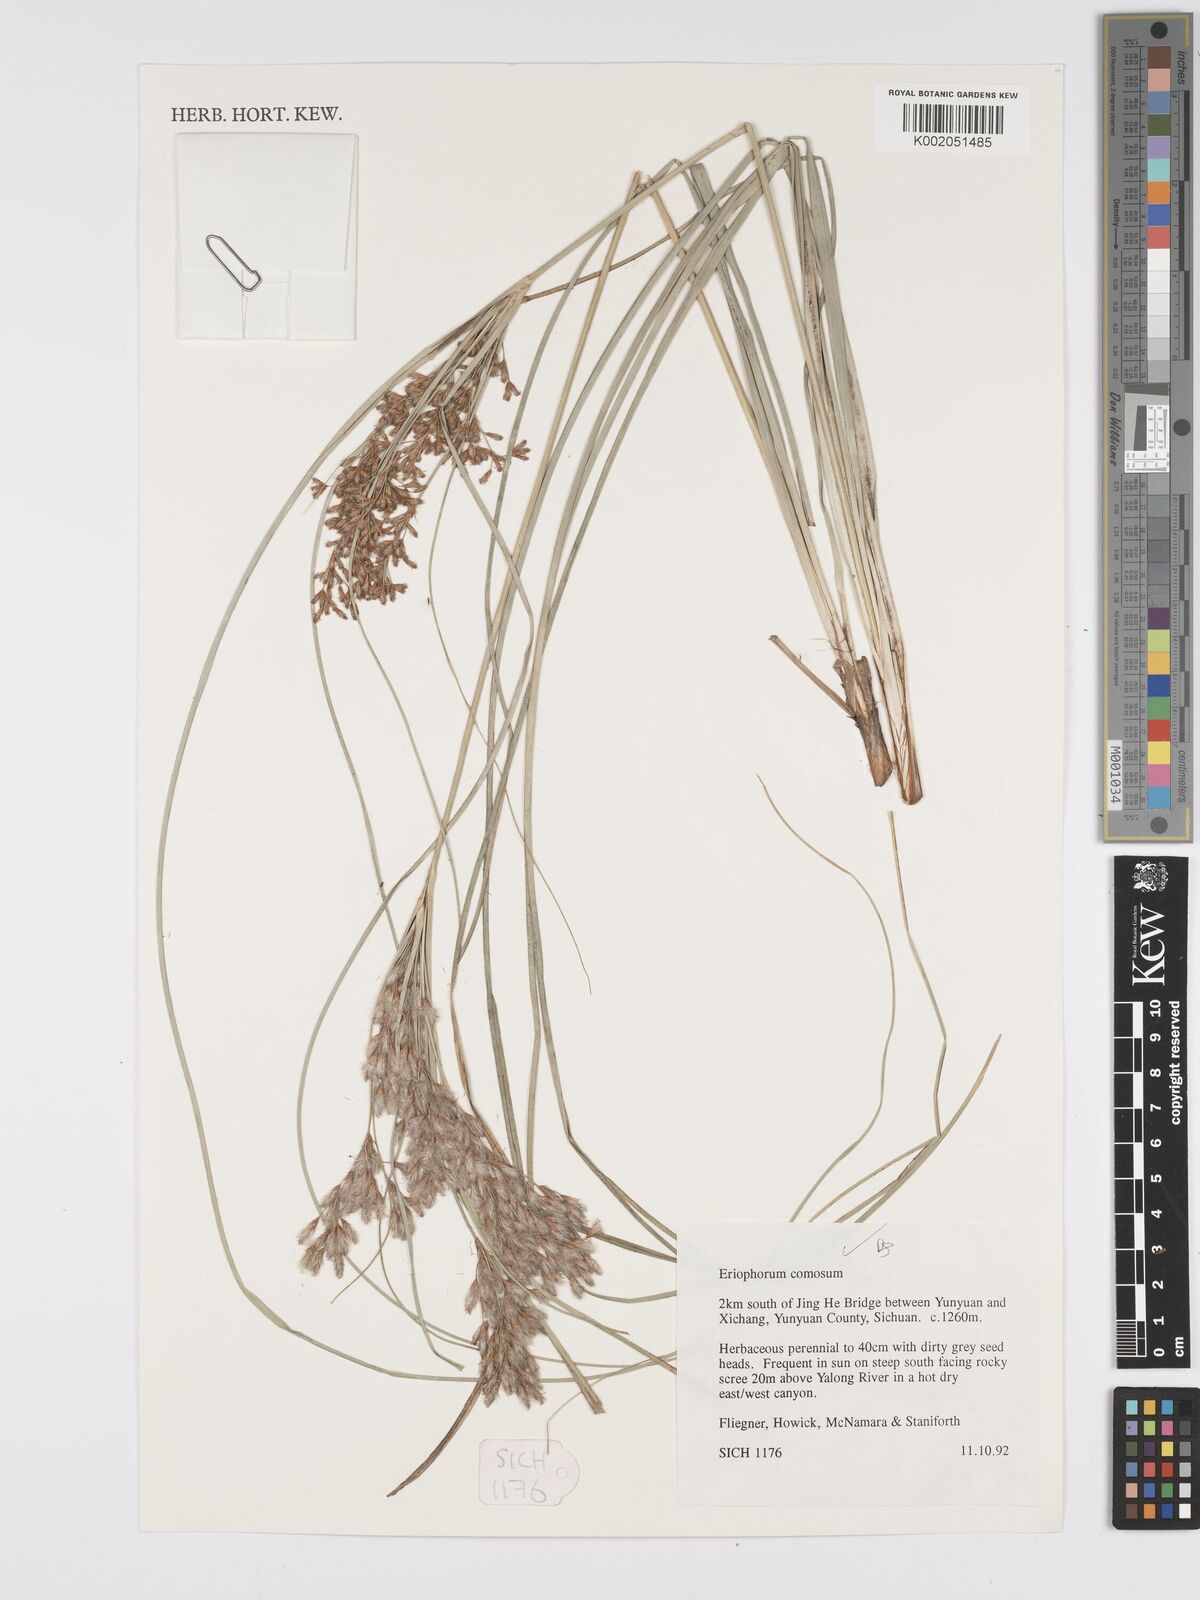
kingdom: Plantae
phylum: Tracheophyta
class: Liliopsida
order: Poales
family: Cyperaceae
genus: Erioscirpus
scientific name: Erioscirpus comosus
